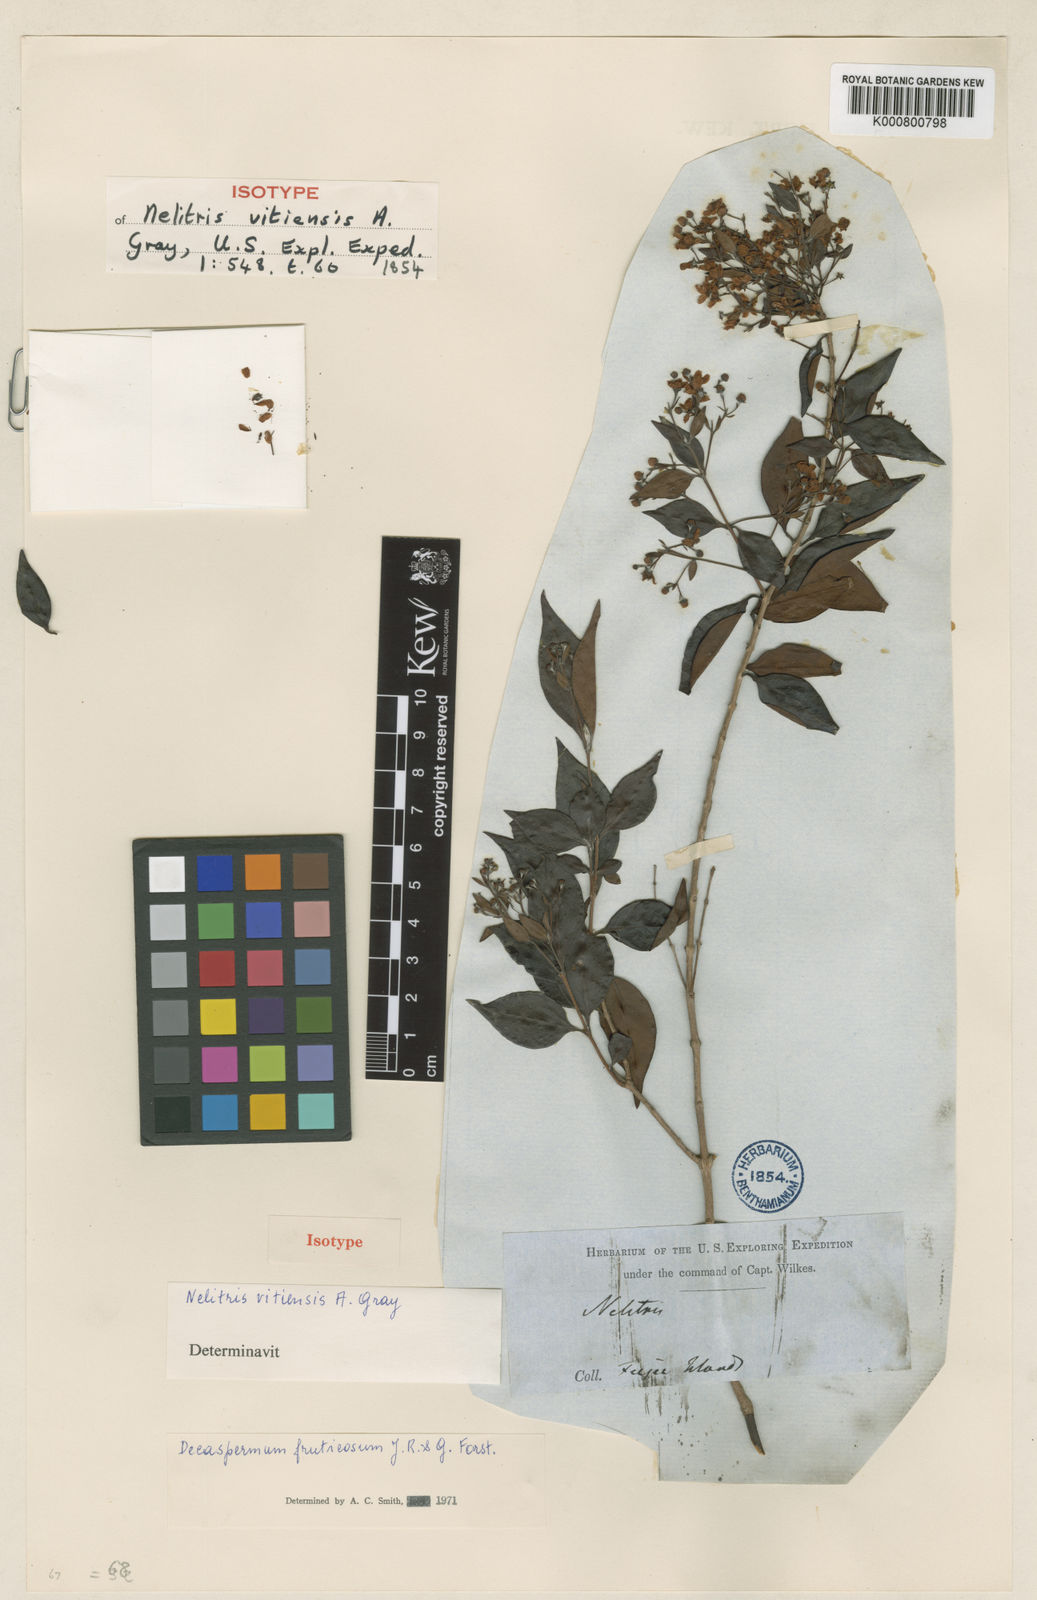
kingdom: Plantae
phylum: Tracheophyta
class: Magnoliopsida
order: Myrtales
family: Myrtaceae
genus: Decaspermum
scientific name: Decaspermum fruticosum
